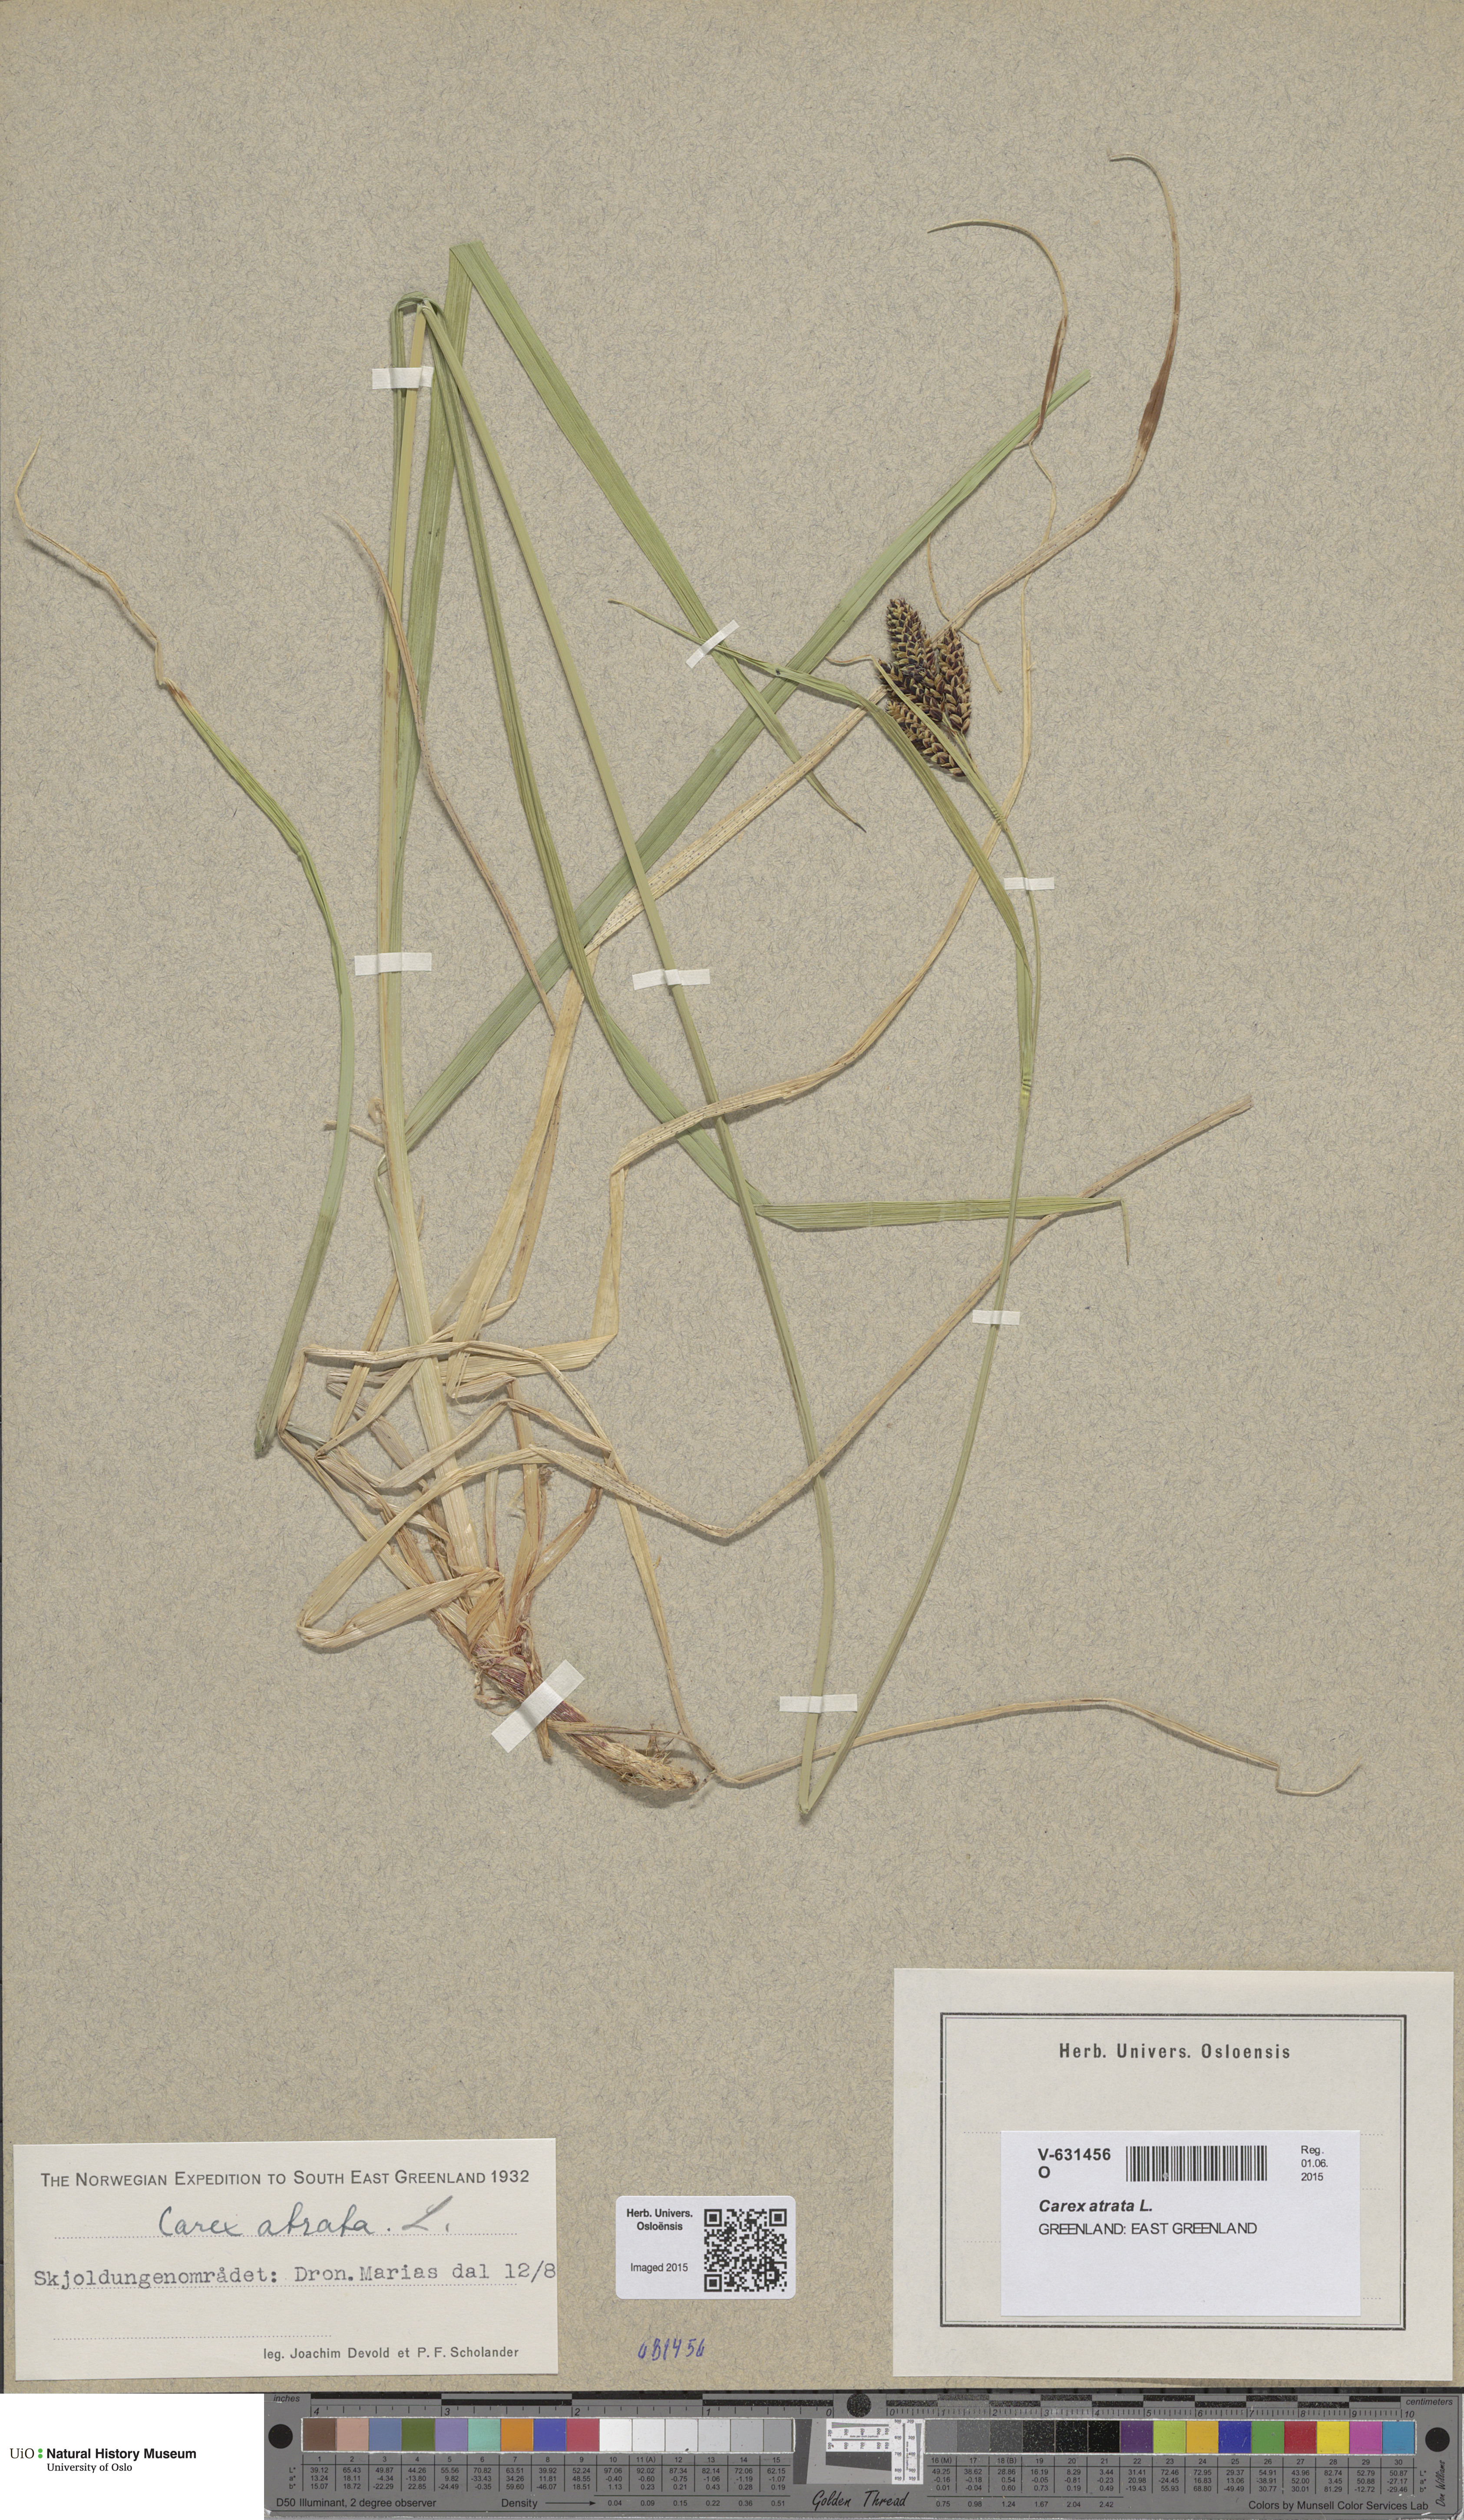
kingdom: Plantae
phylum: Tracheophyta
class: Liliopsida
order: Poales
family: Cyperaceae
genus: Carex
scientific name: Carex atrata
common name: Black alpine sedge
